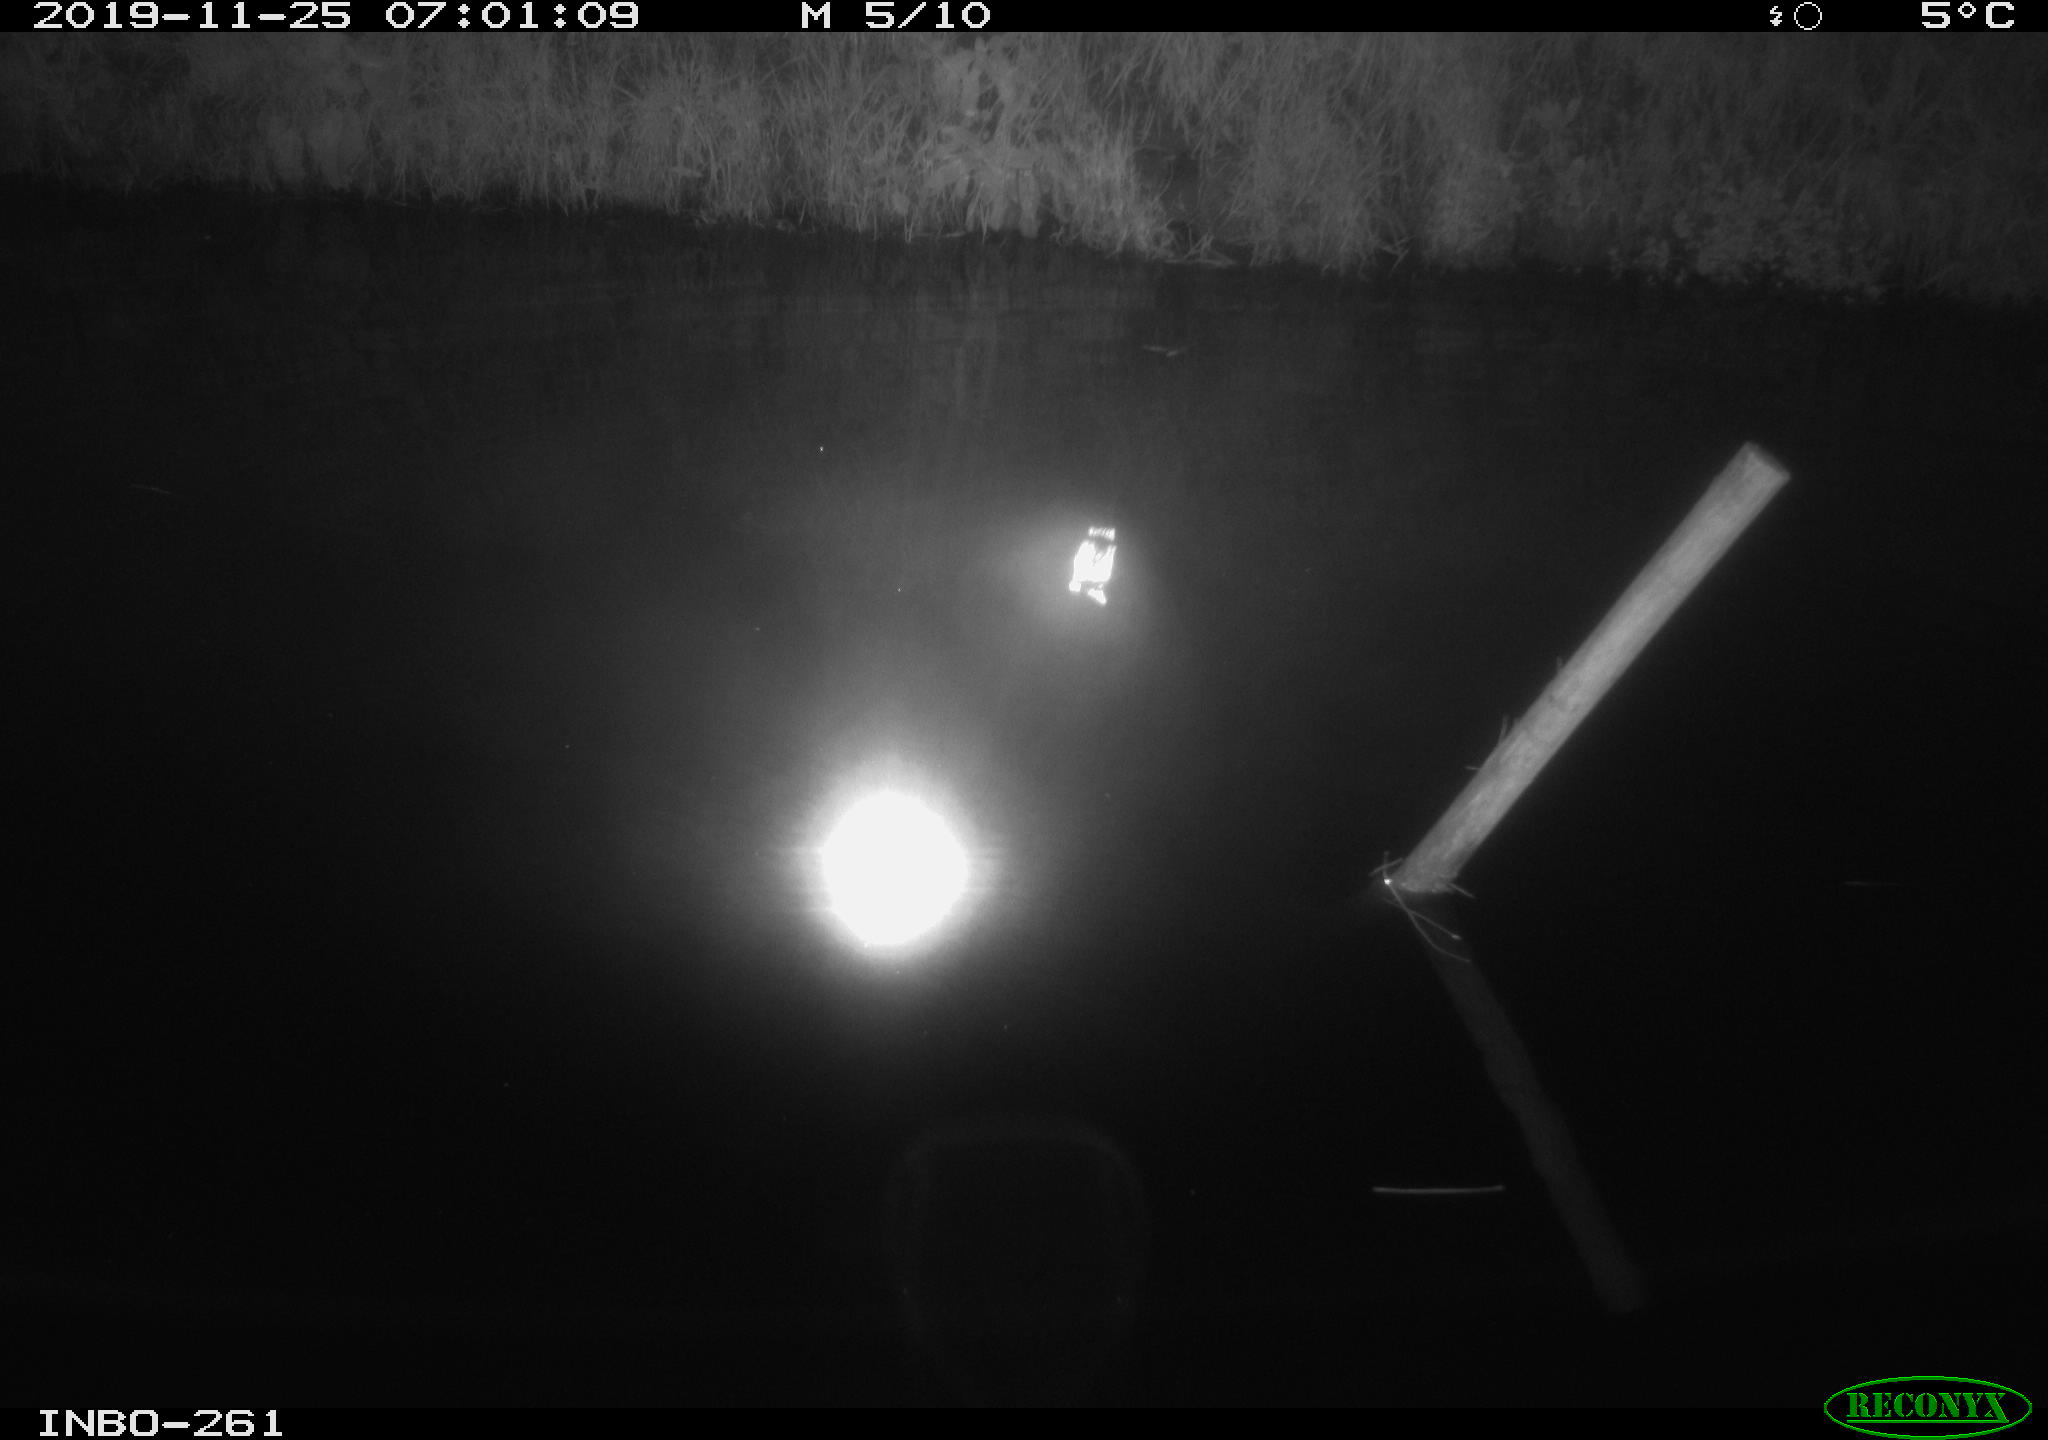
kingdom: Animalia
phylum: Chordata
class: Aves
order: Anseriformes
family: Anatidae
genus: Anas
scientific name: Anas platyrhynchos
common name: Mallard
